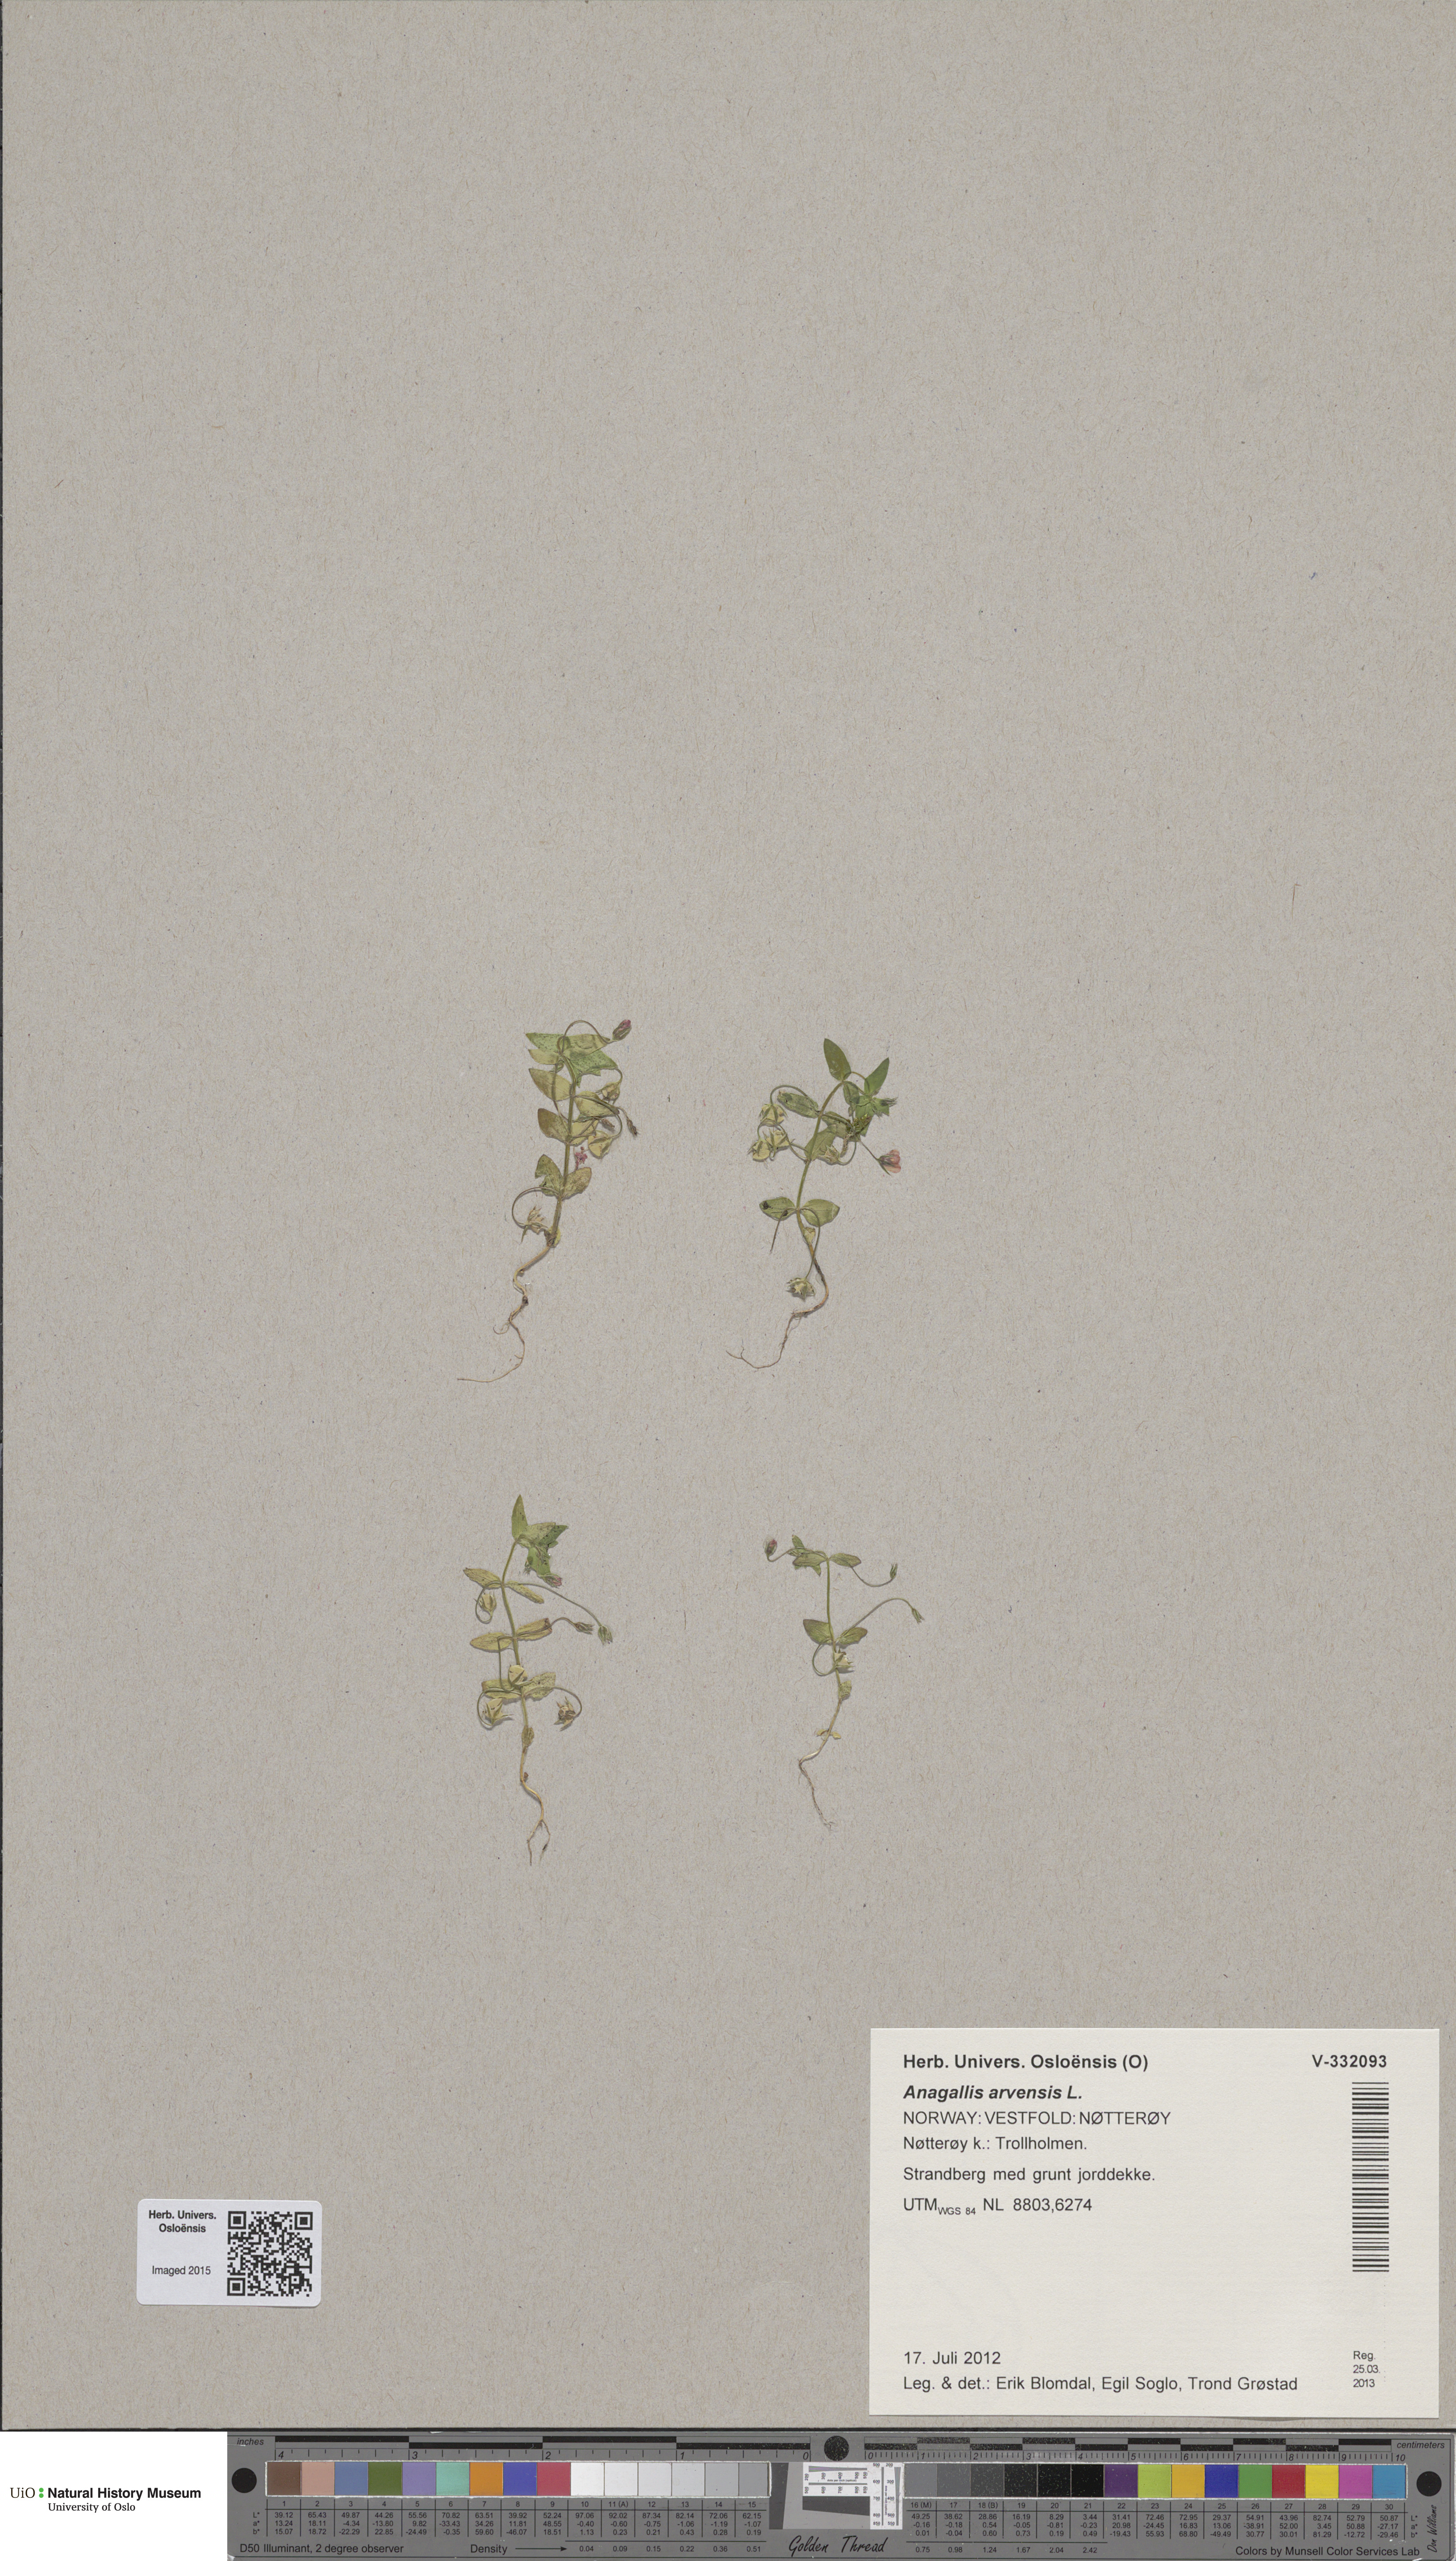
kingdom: Plantae
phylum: Tracheophyta
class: Magnoliopsida
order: Ericales
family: Primulaceae
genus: Lysimachia
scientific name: Lysimachia arvensis
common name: Scarlet pimpernel
